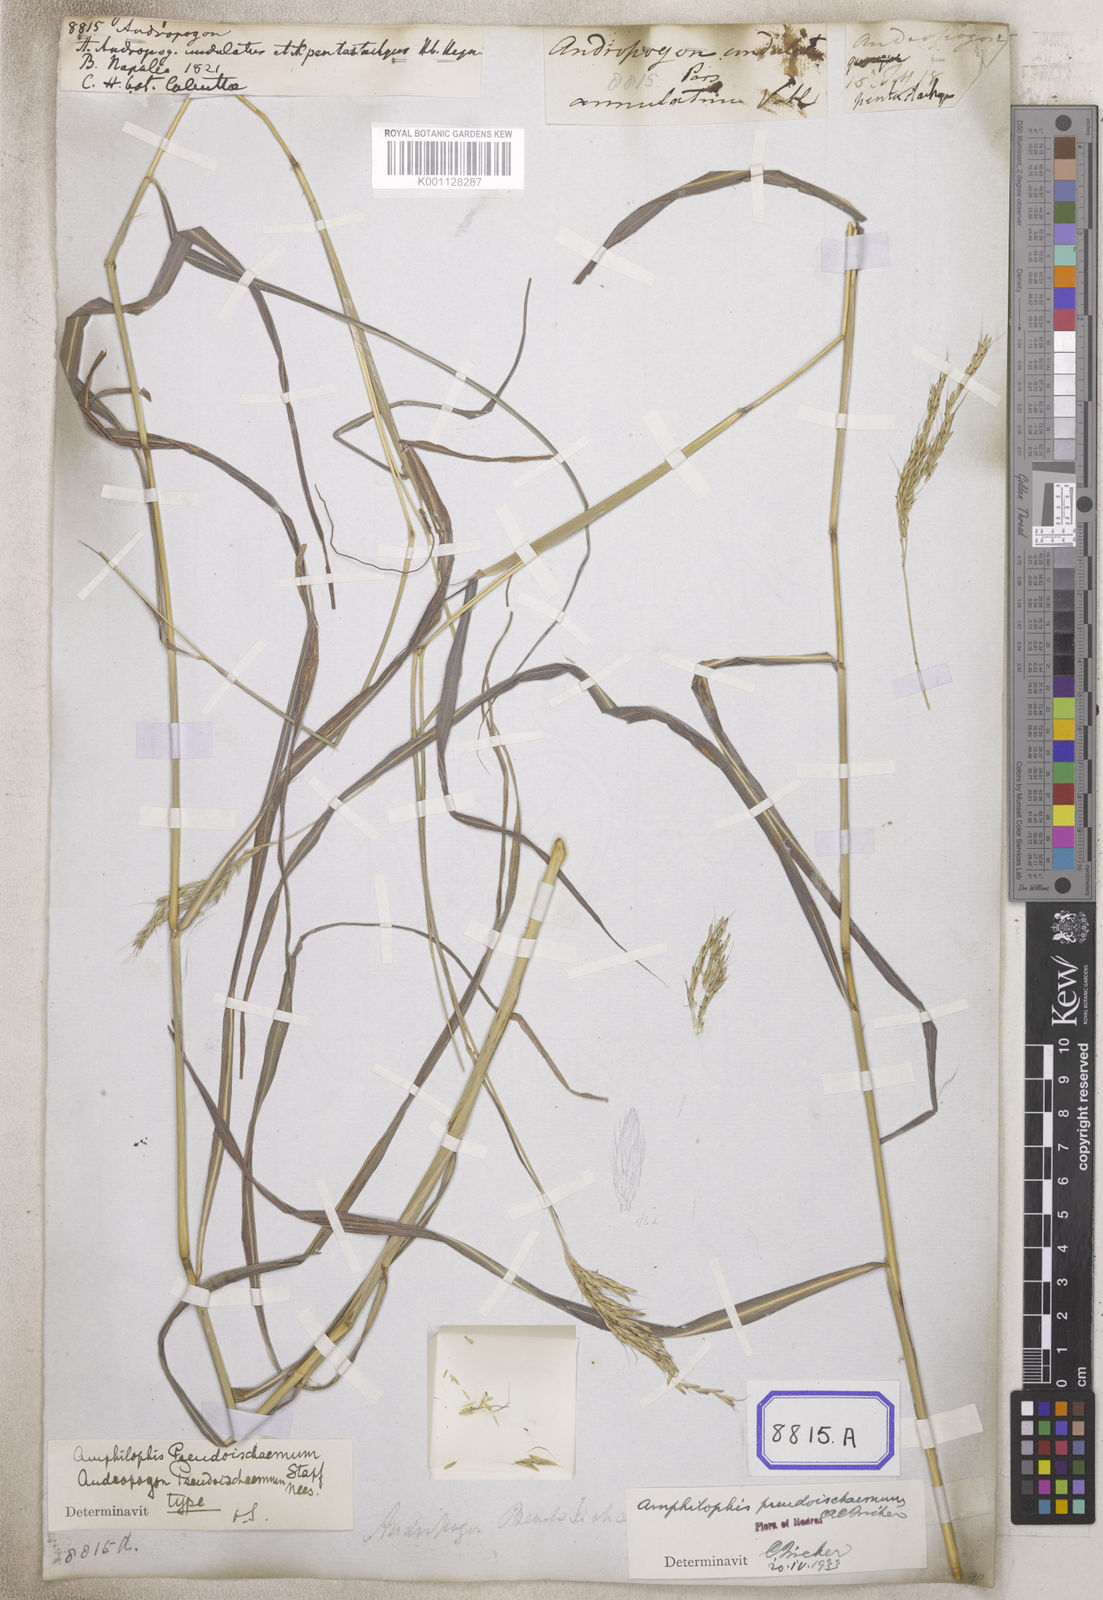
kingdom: Plantae
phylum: Tracheophyta
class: Liliopsida
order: Poales
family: Poaceae
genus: Andropogon
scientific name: Andropogon
